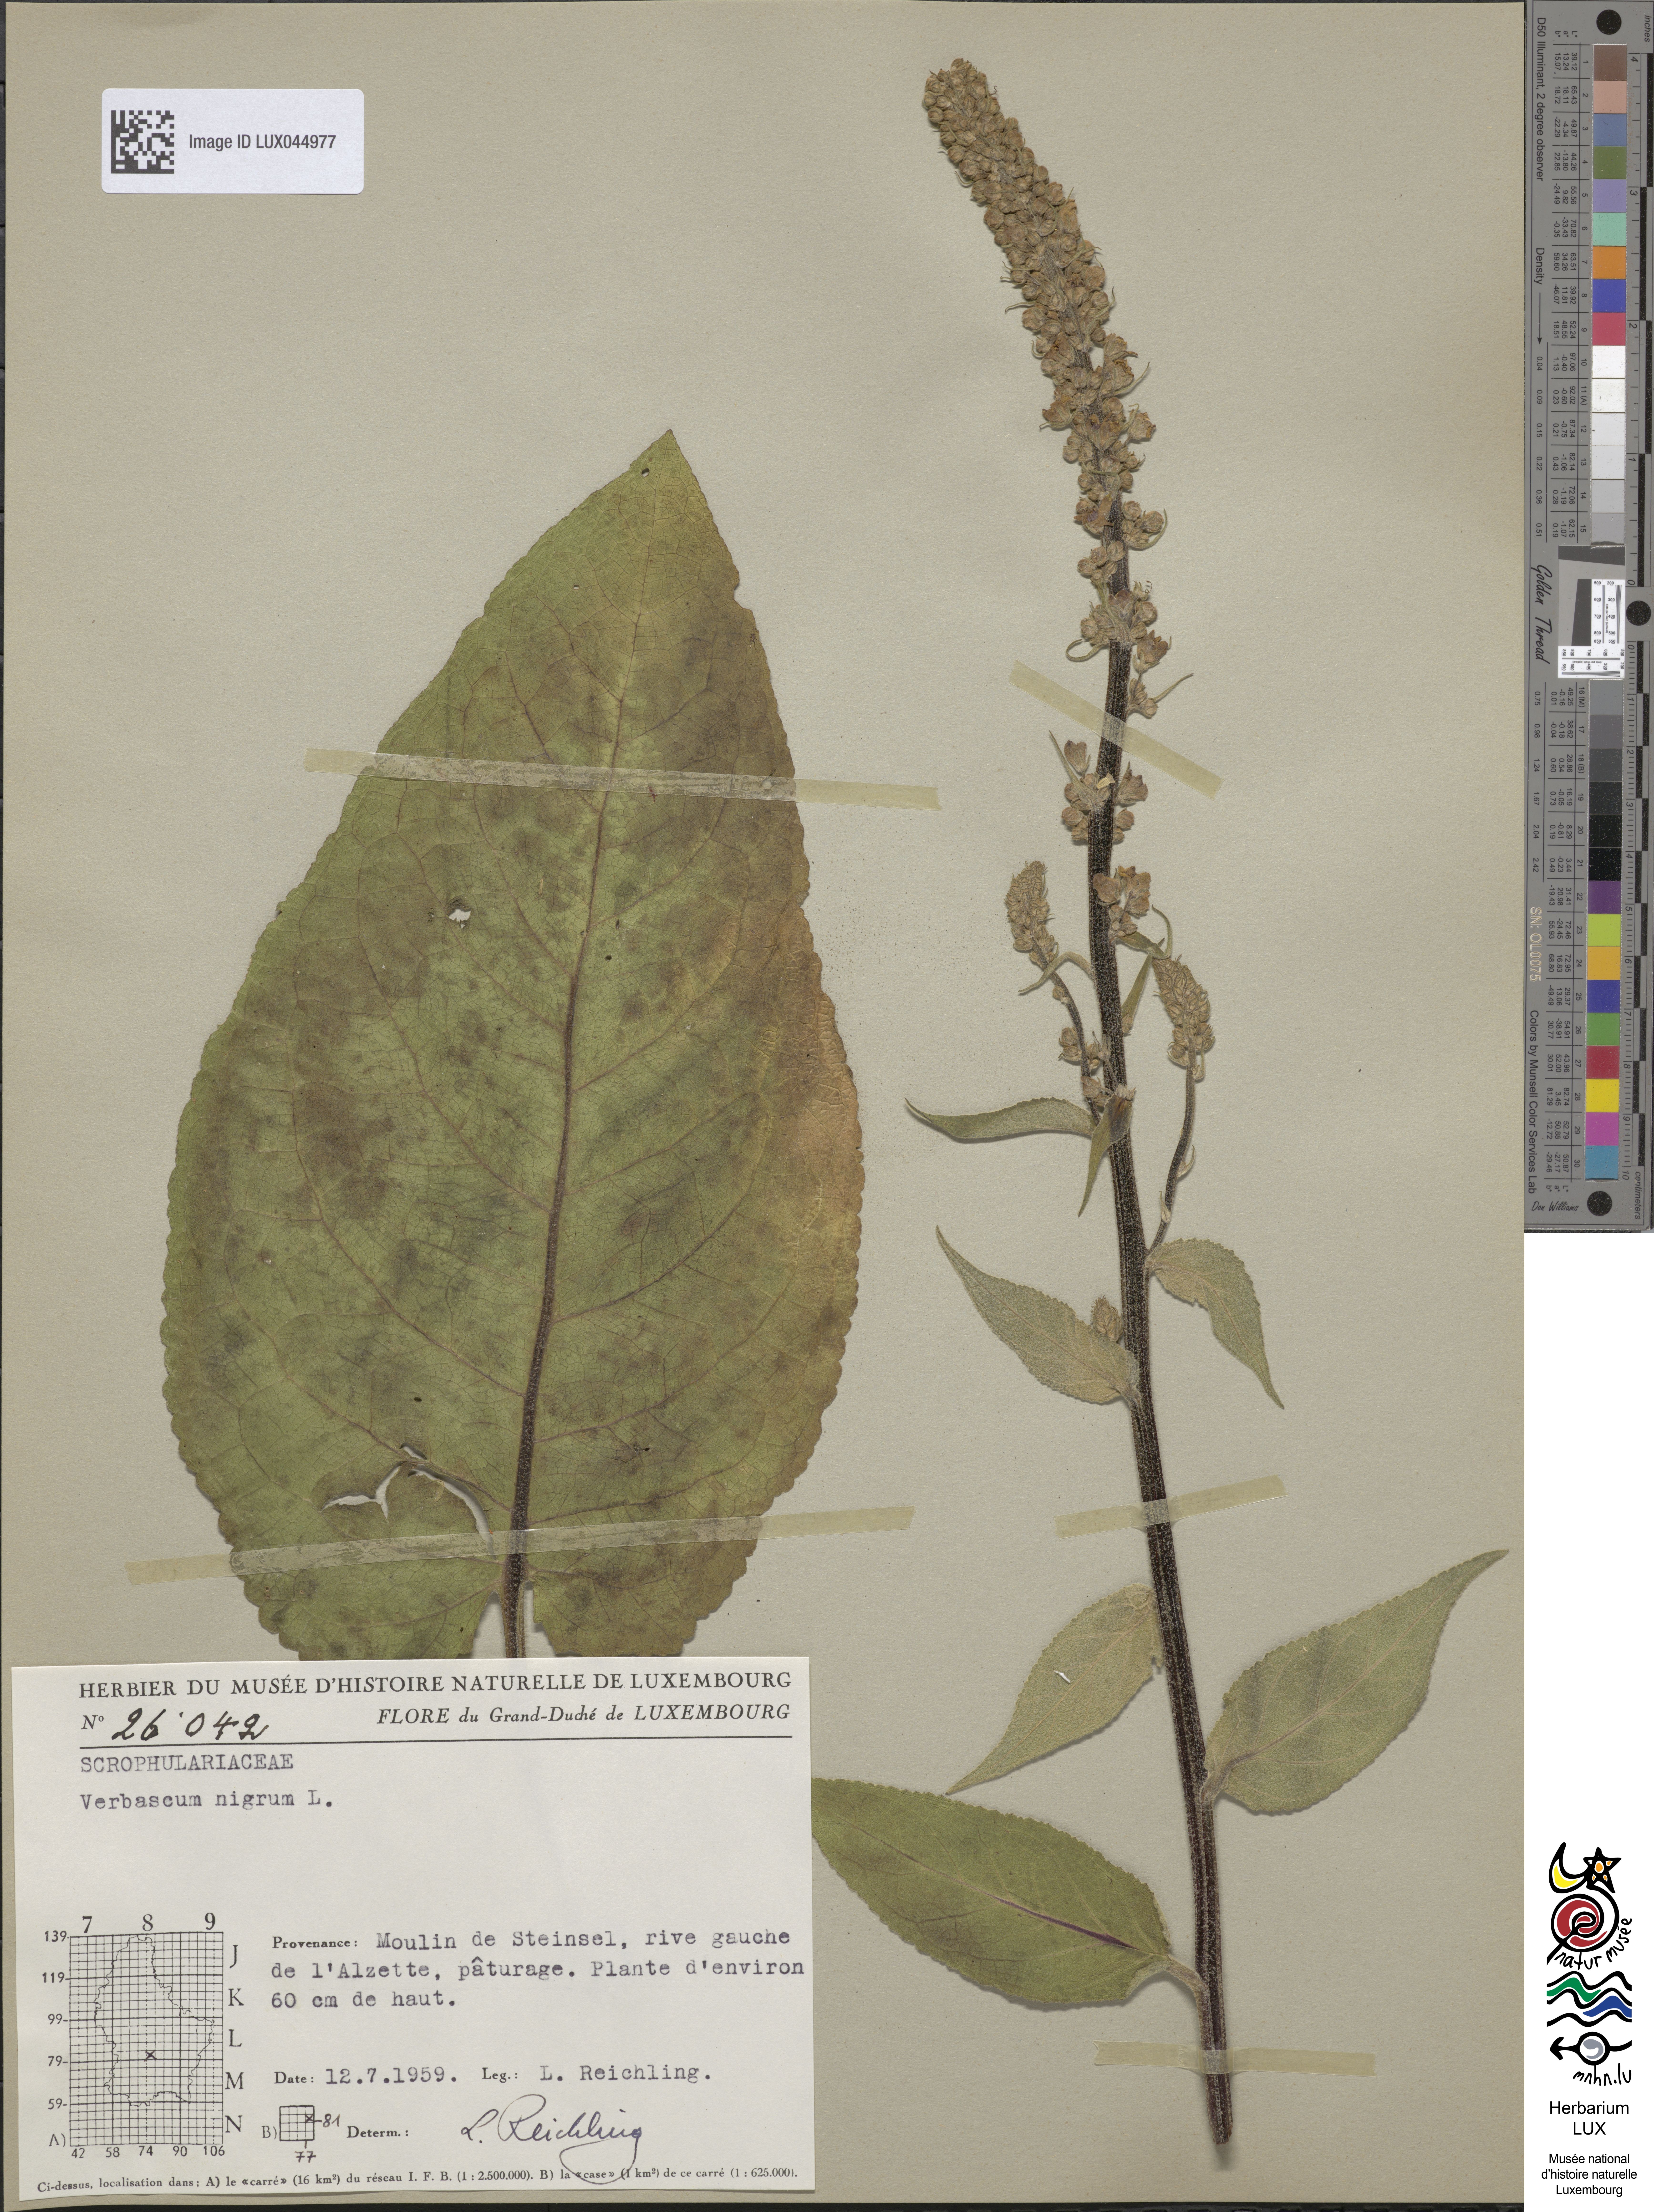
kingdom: Plantae
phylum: Tracheophyta
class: Magnoliopsida
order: Lamiales
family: Scrophulariaceae
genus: Verbascum
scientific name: Verbascum nigrum
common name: Dark mullein
